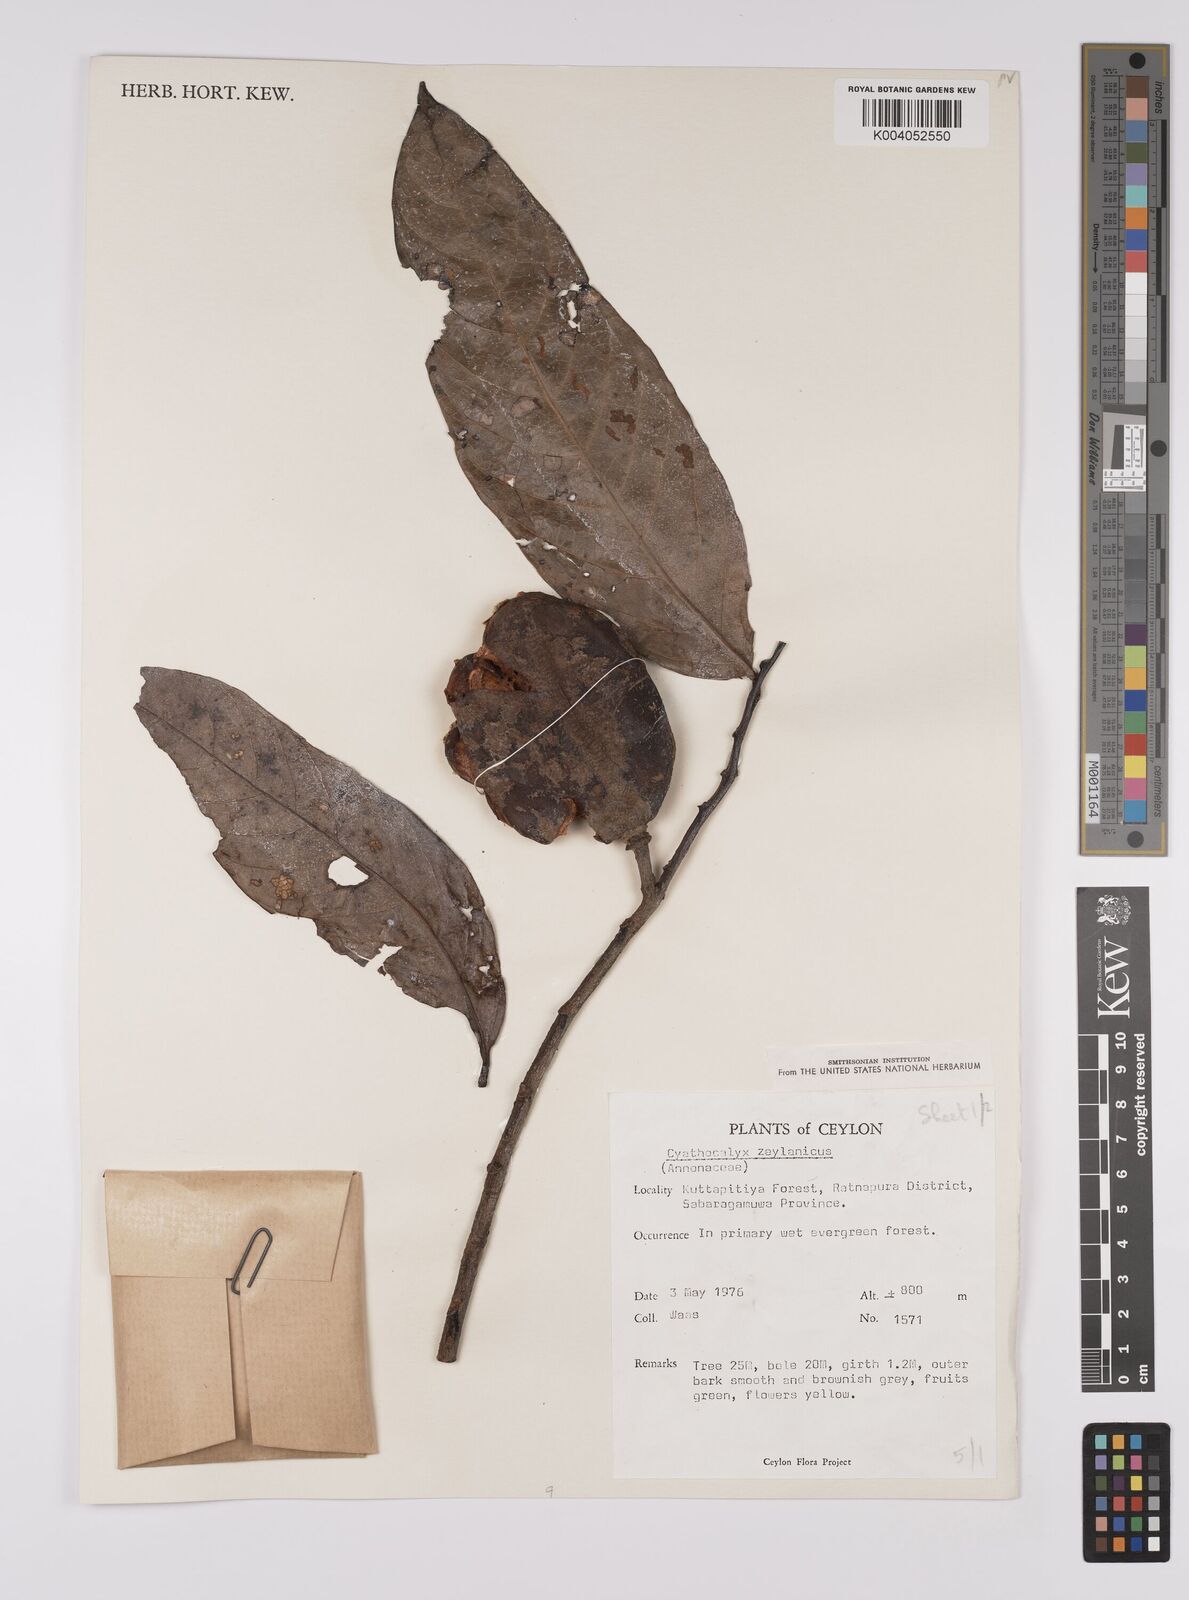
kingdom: Plantae
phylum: Tracheophyta
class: Magnoliopsida
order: Magnoliales
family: Annonaceae
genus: Cyathocalyx
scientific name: Cyathocalyx zeylanicus
